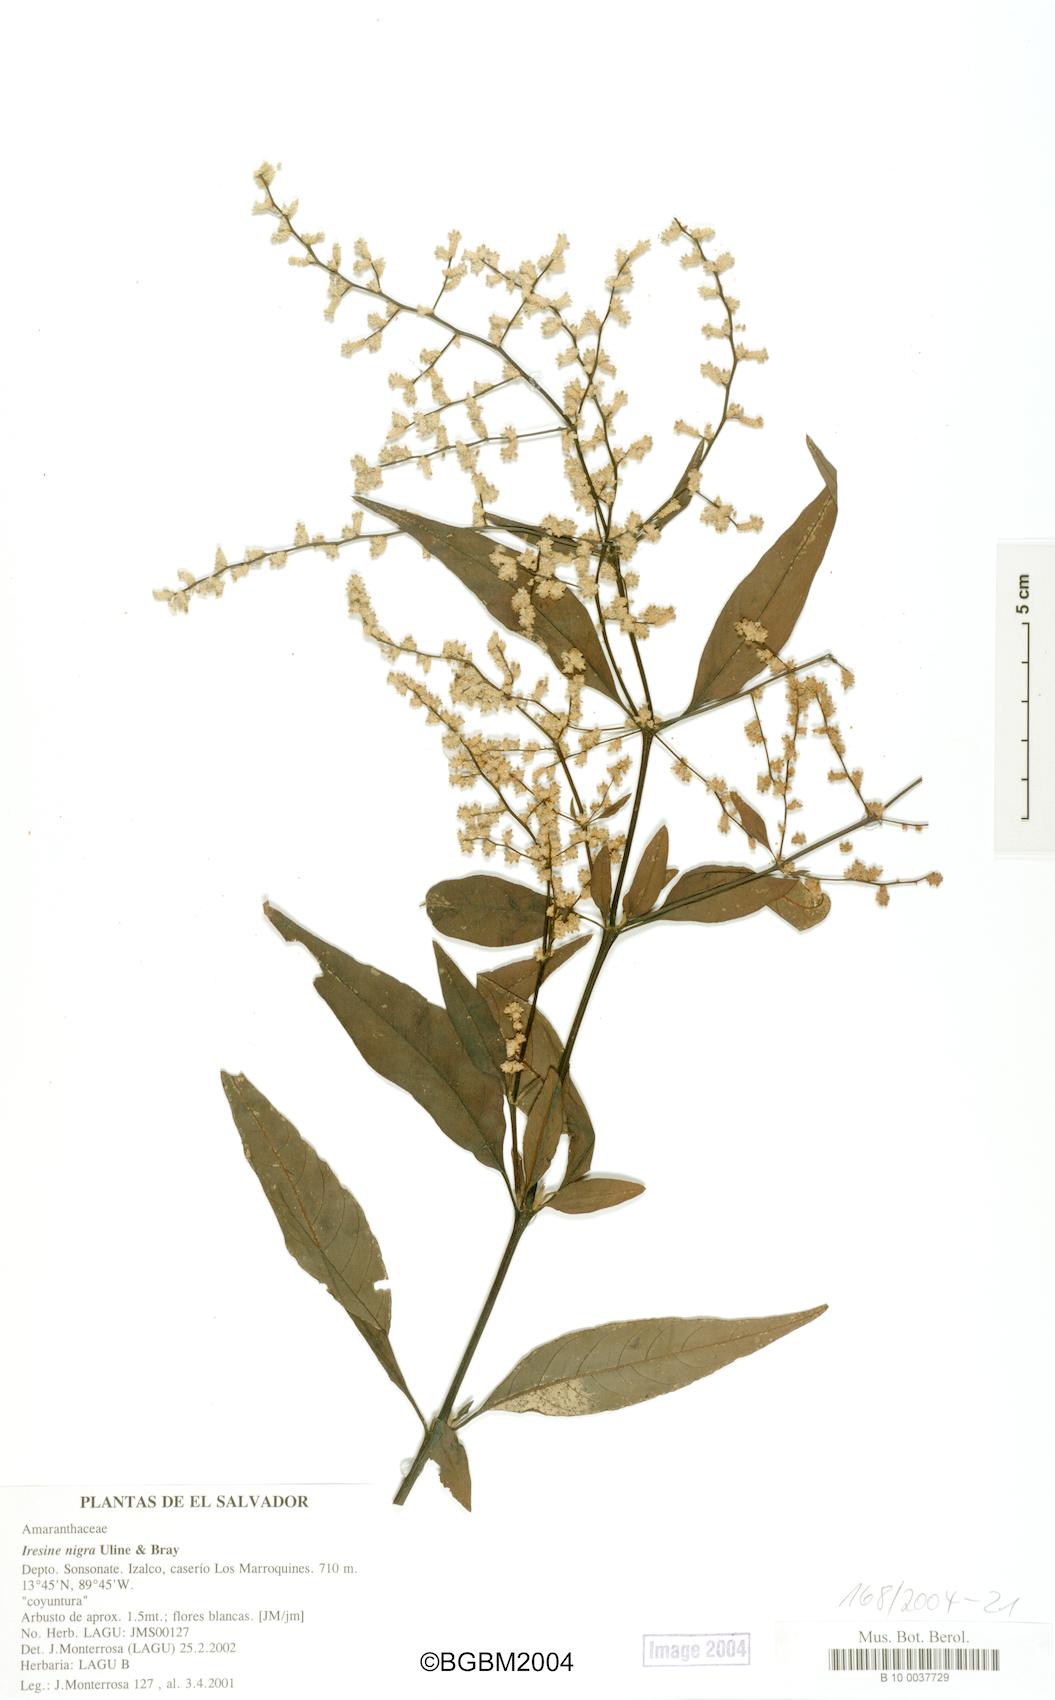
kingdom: Plantae
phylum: Tracheophyta
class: Magnoliopsida
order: Caryophyllales
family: Amaranthaceae
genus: Iresine
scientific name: Iresine nigra
